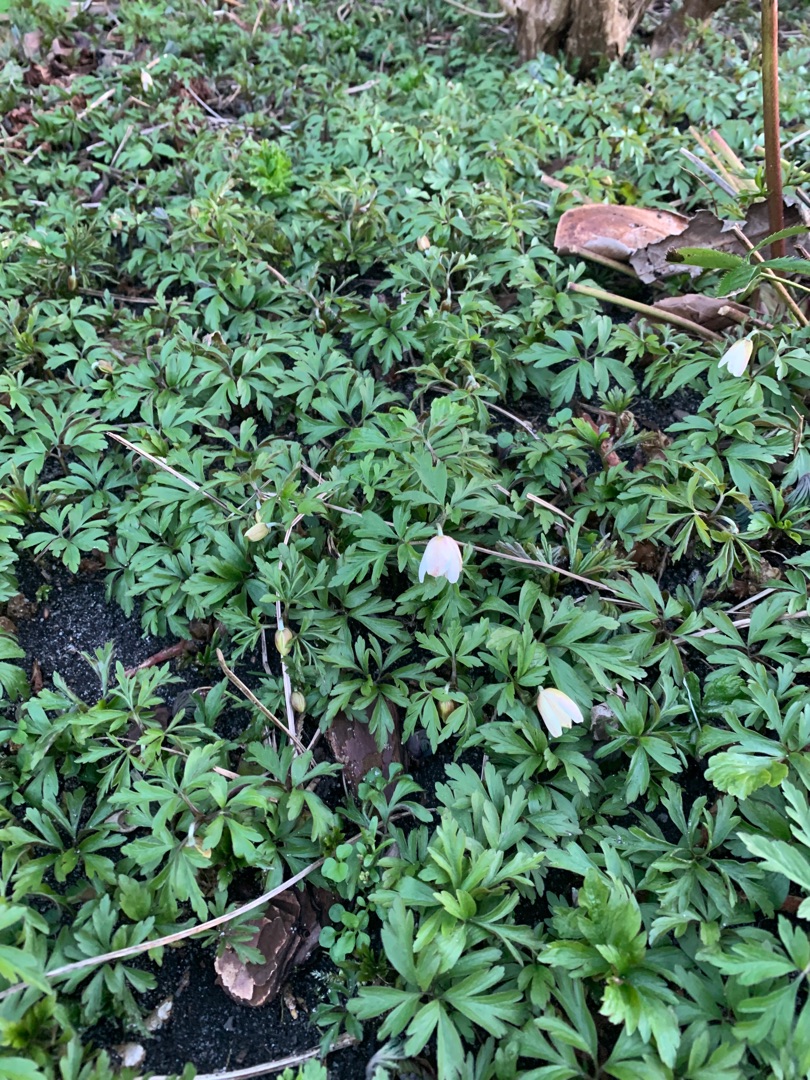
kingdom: Plantae
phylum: Tracheophyta
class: Magnoliopsida
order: Ranunculales
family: Ranunculaceae
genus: Anemone
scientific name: Anemone nemorosa
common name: Hvid anemone
